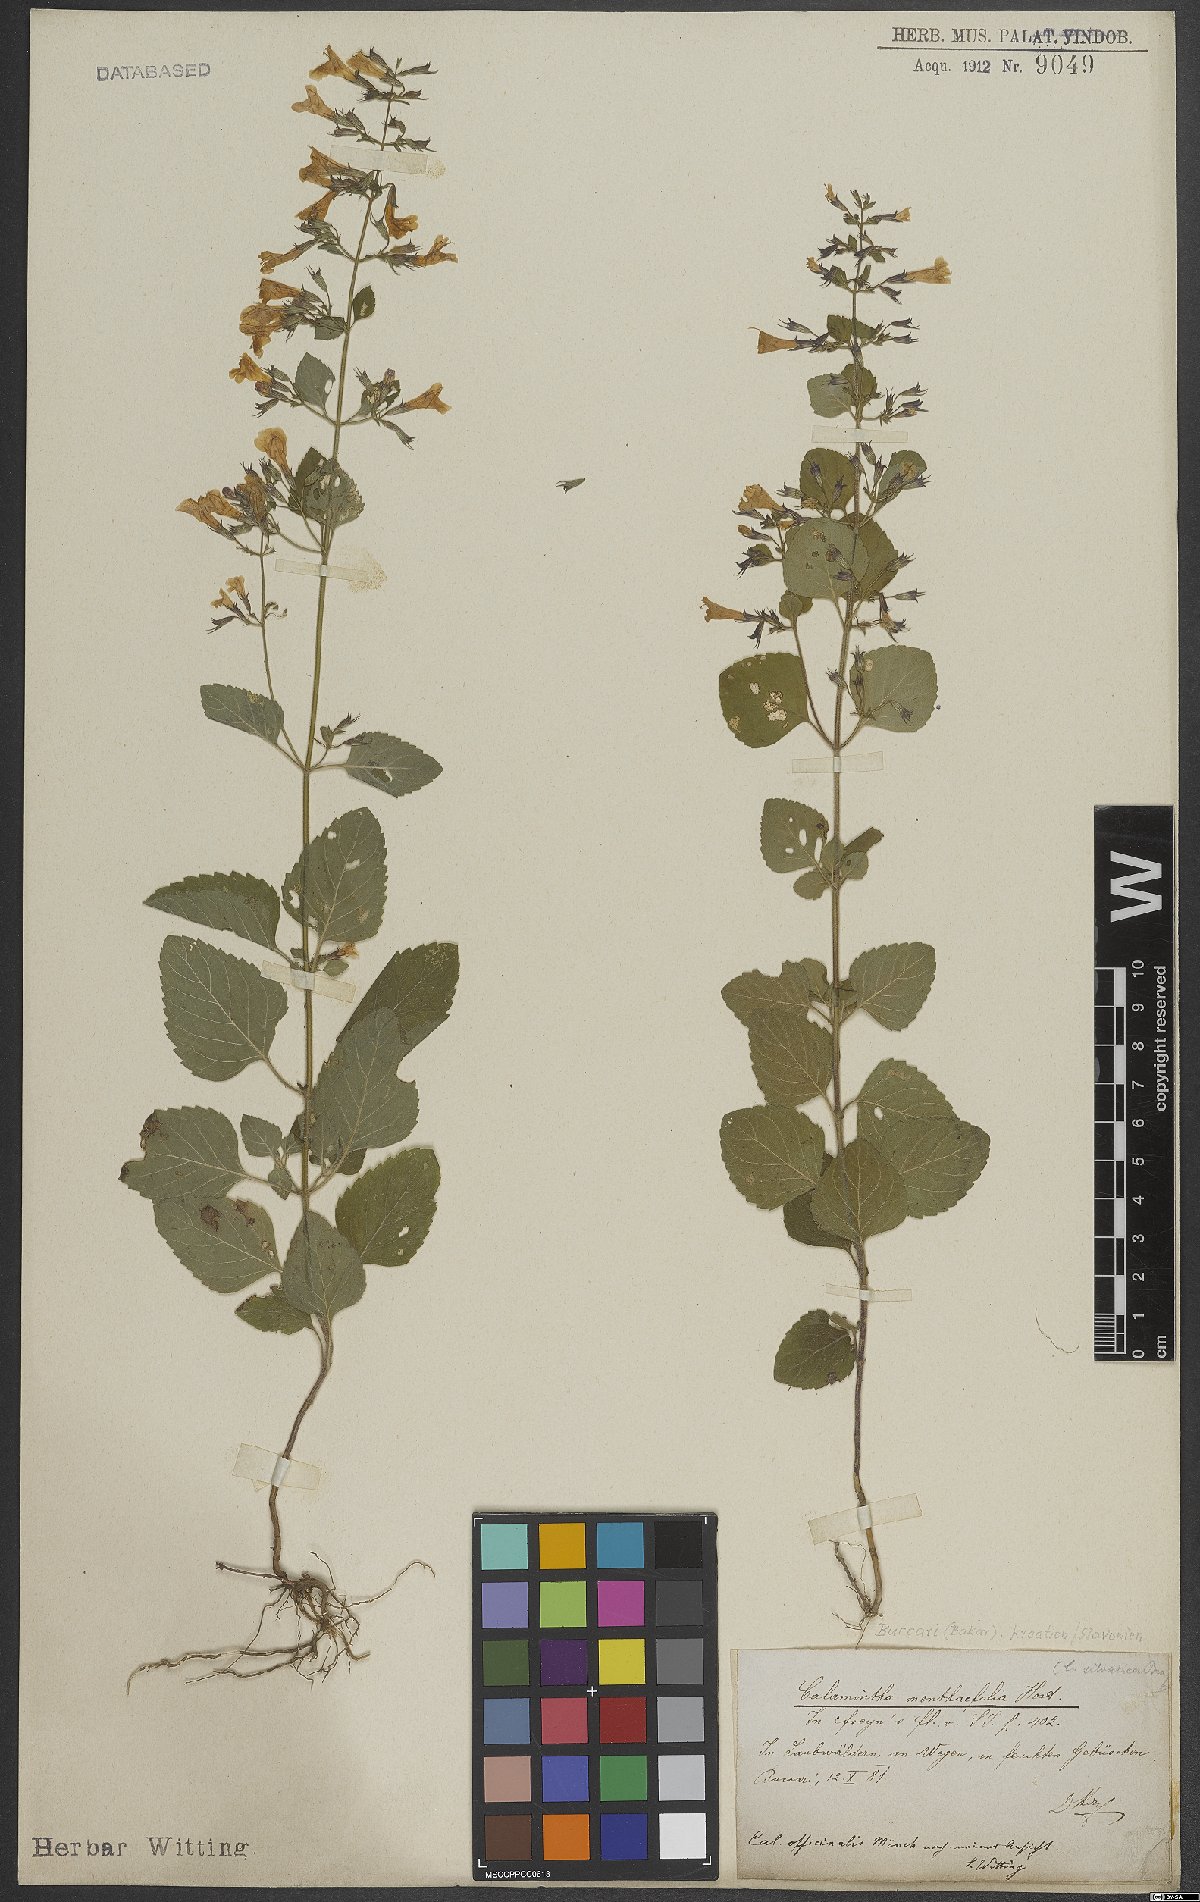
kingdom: Plantae
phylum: Tracheophyta
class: Magnoliopsida
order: Lamiales
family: Lamiaceae
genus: Calamintha
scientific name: Calamintha
